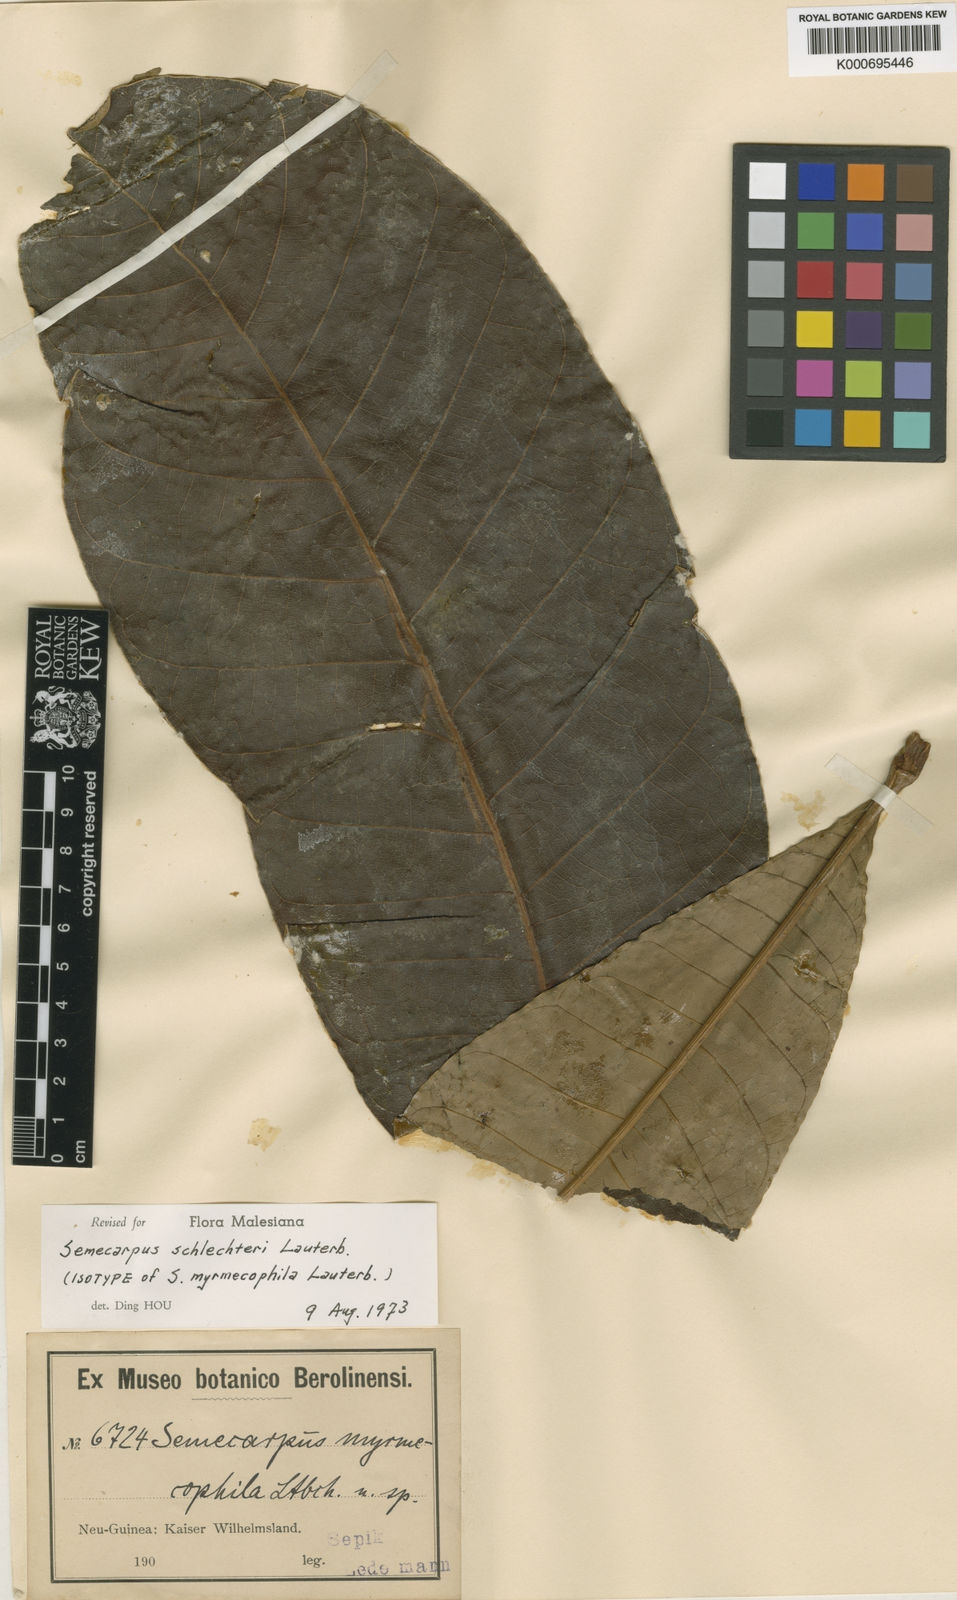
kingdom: Plantae
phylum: Tracheophyta
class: Magnoliopsida
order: Sapindales
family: Anacardiaceae
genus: Semecarpus
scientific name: Semecarpus schlechteri
